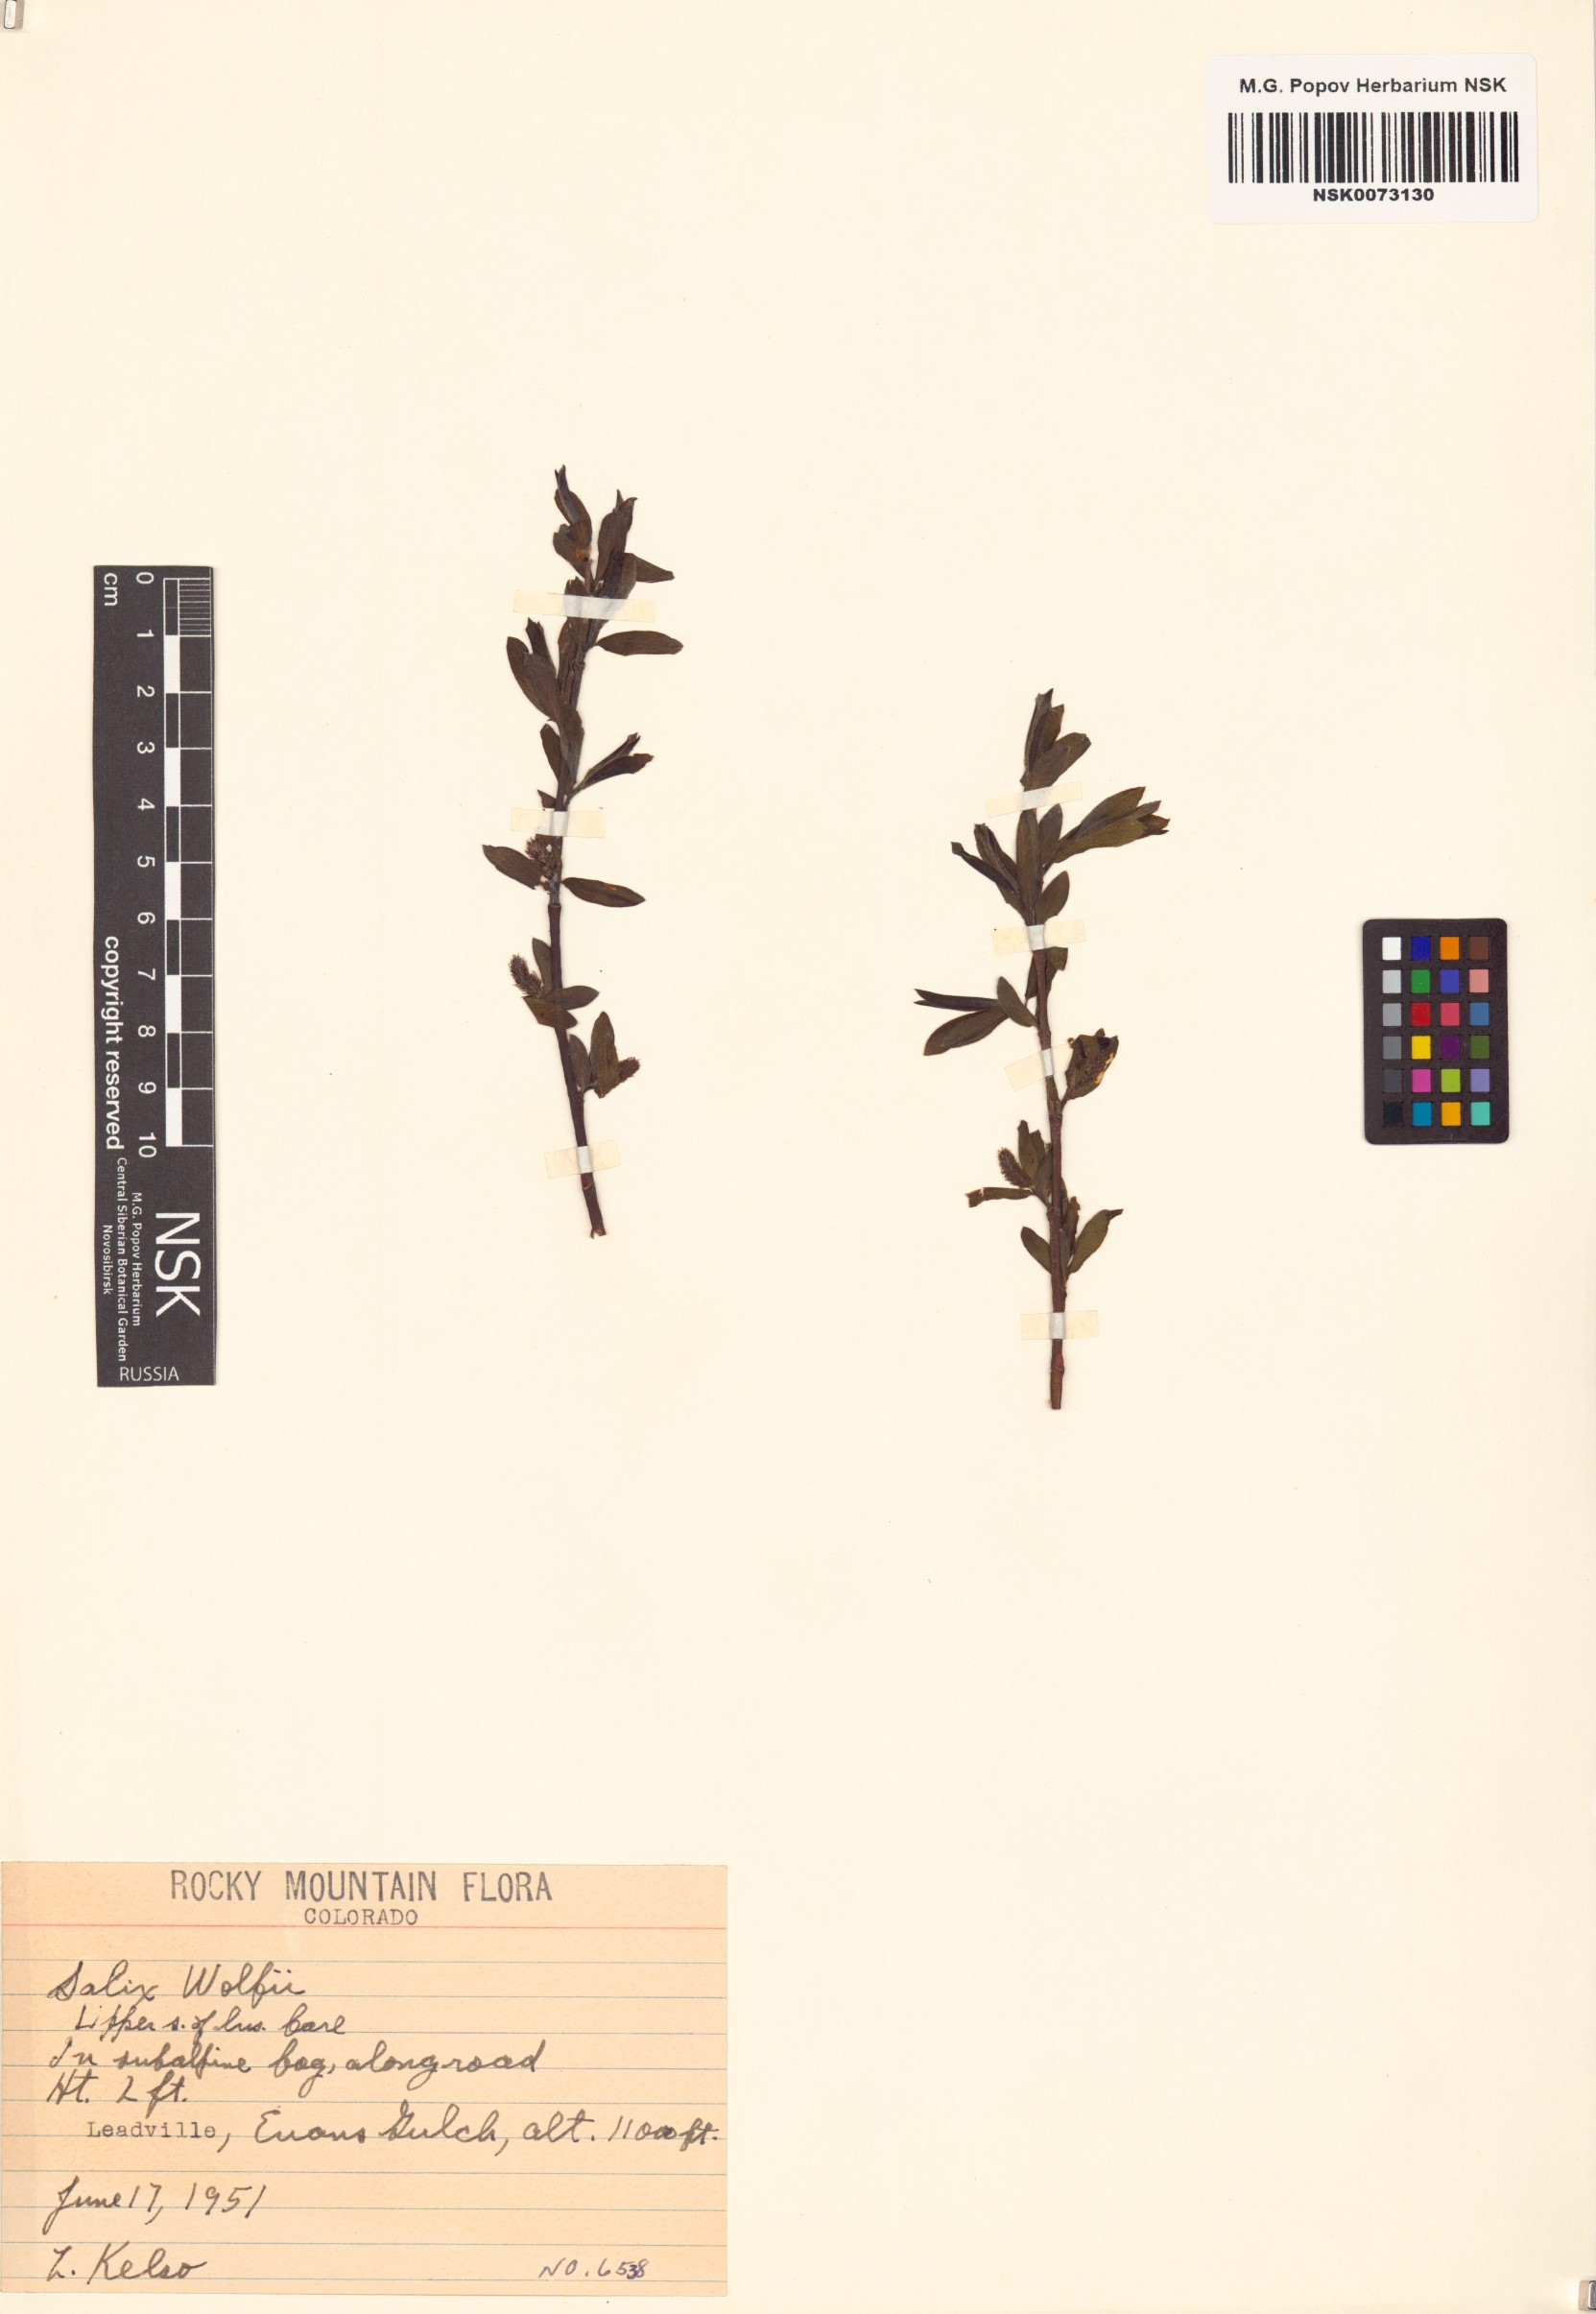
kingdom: Plantae
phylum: Tracheophyta
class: Magnoliopsida
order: Malpighiales
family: Salicaceae
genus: Salix
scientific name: Salix wolfii
